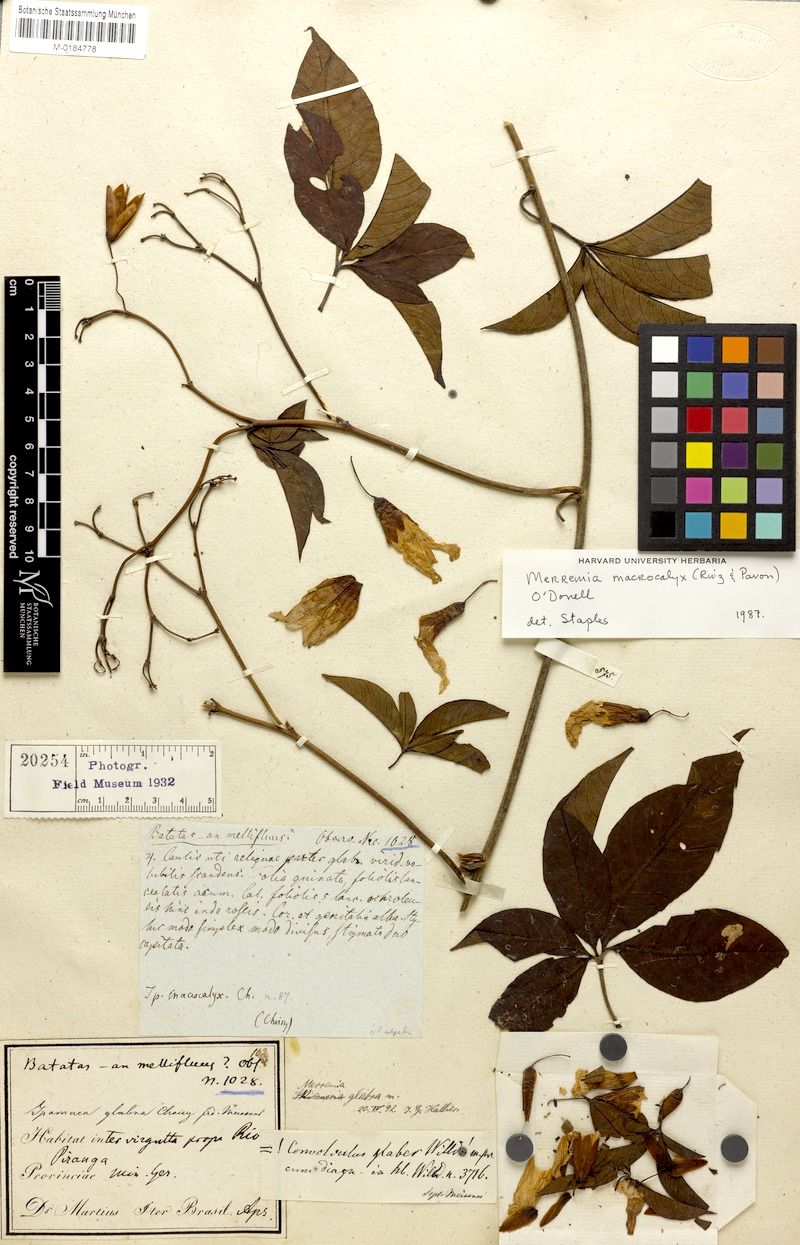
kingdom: Plantae
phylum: Tracheophyta
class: Magnoliopsida
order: Solanales
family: Convolvulaceae
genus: Distimake
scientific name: Distimake macrocalyx
